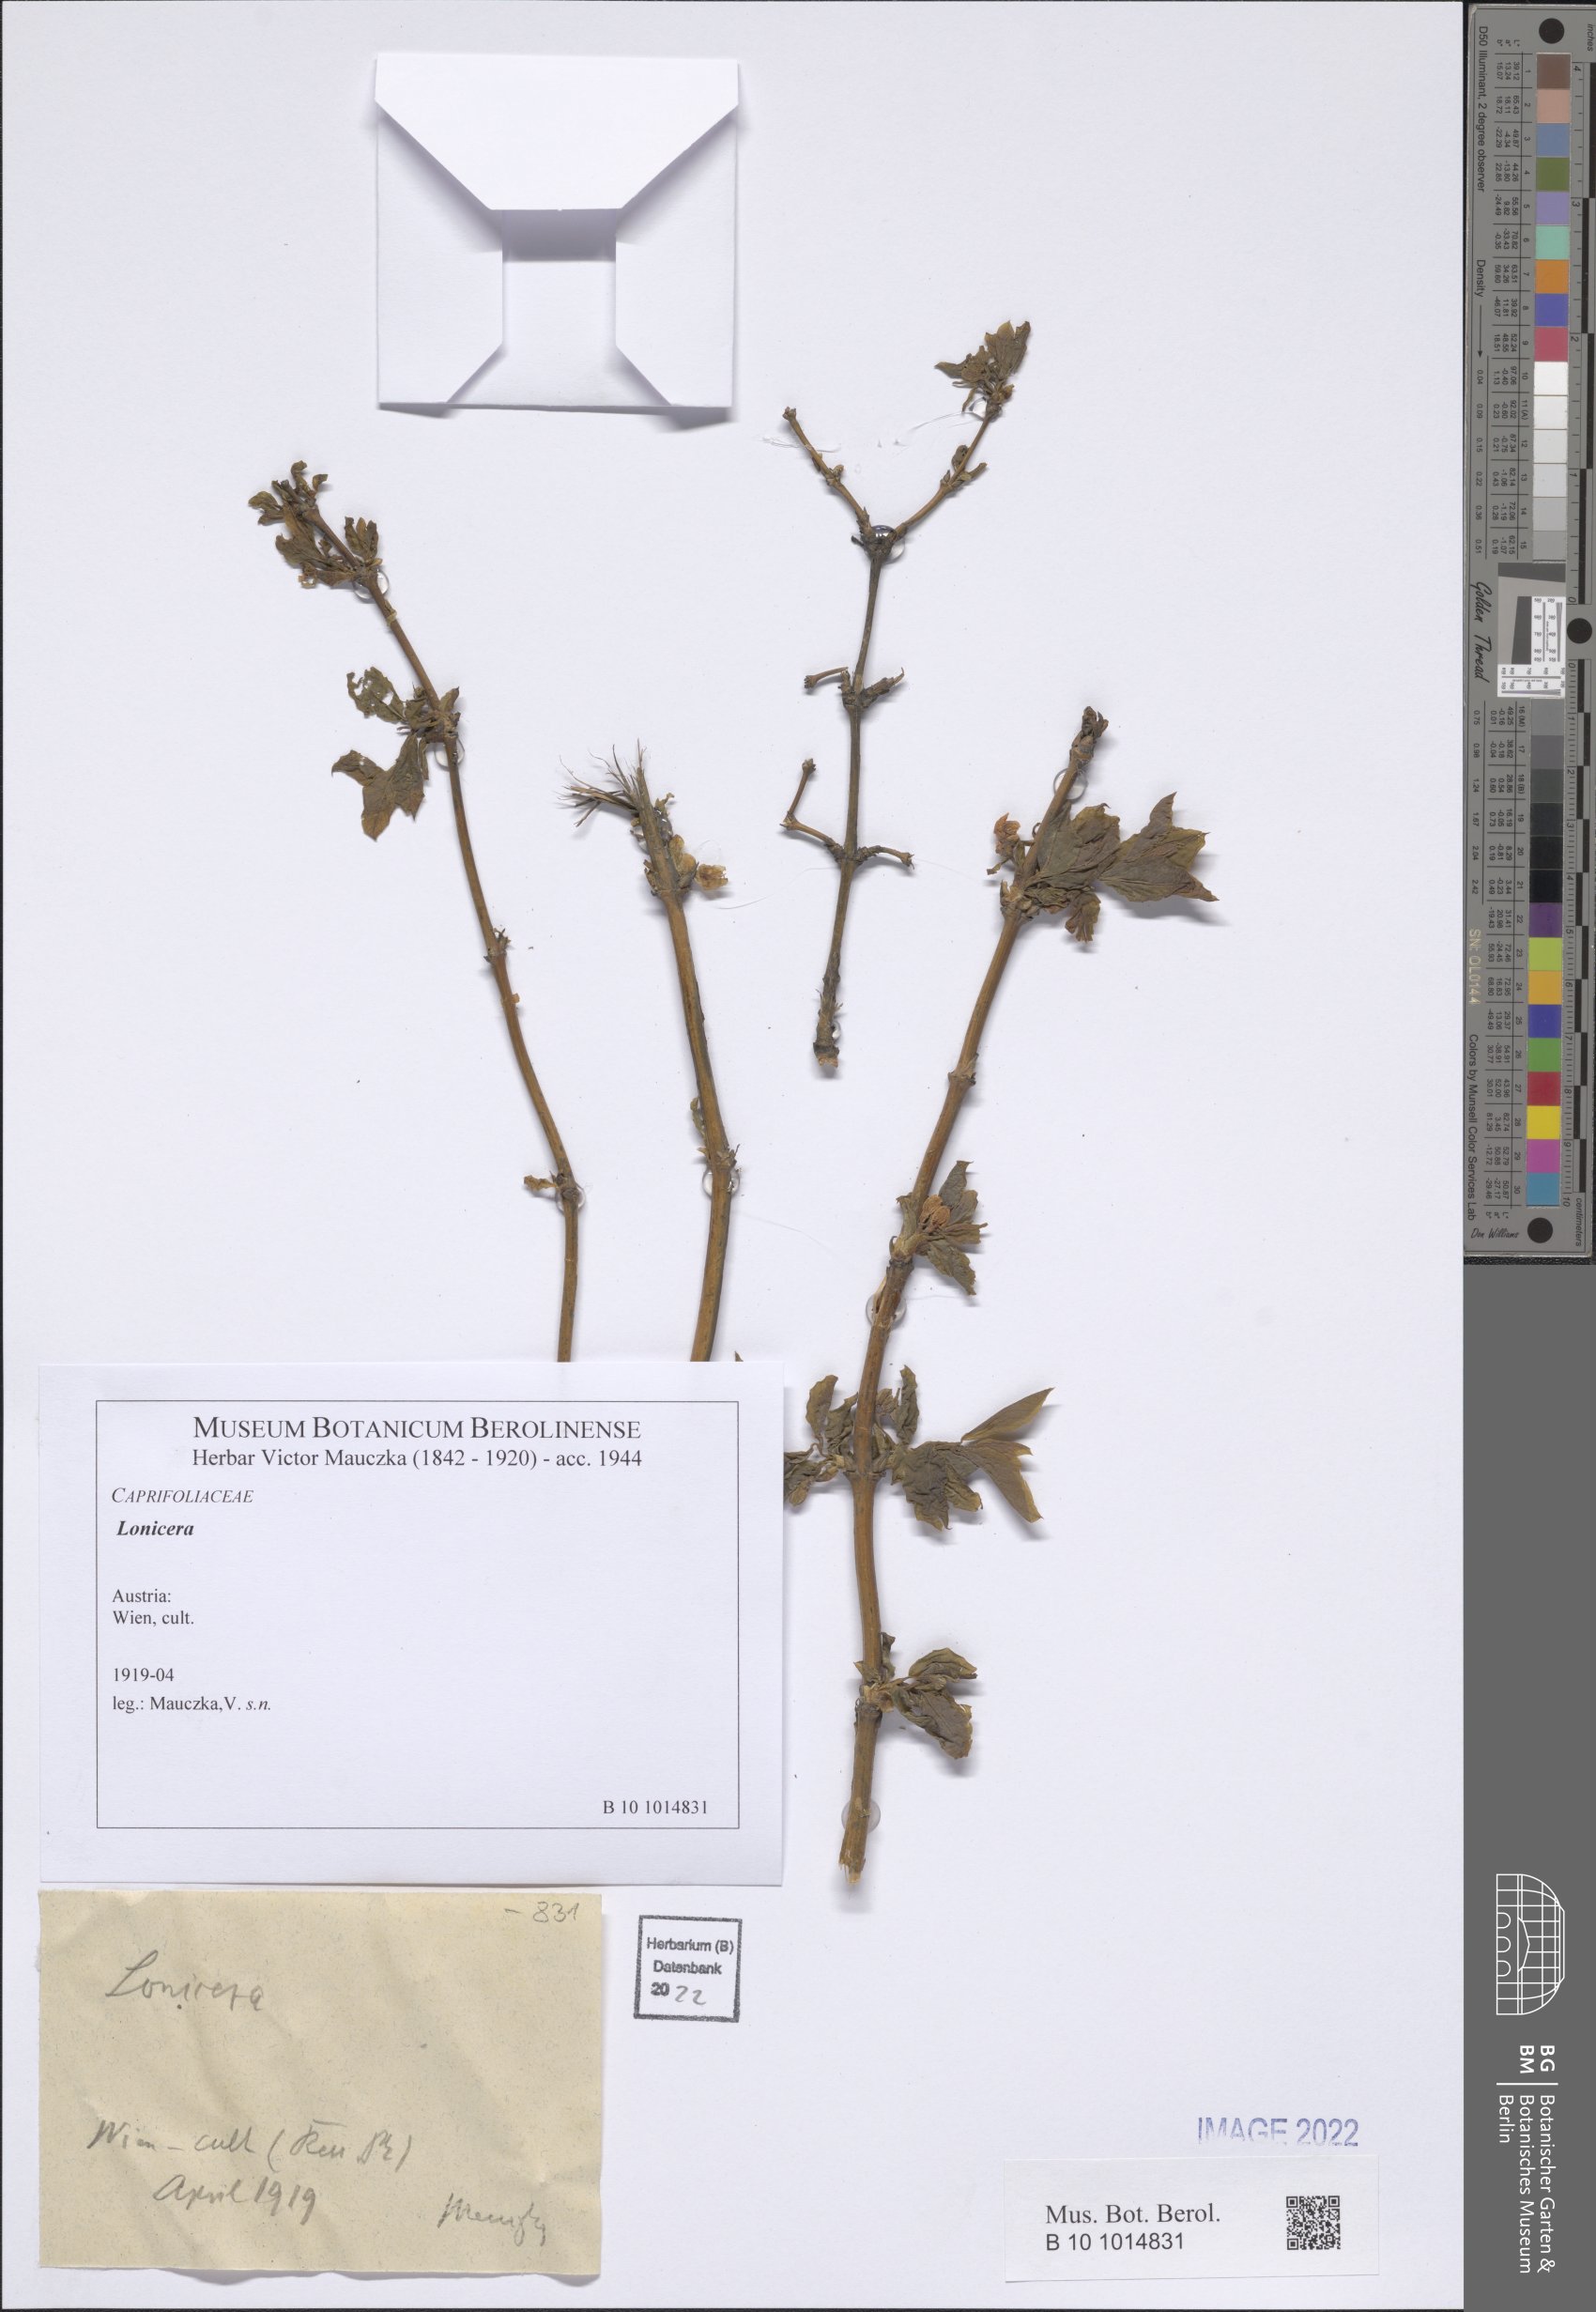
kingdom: Plantae
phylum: Tracheophyta
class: Magnoliopsida
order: Dipsacales
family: Caprifoliaceae
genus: Lonicera
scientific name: Lonicera
